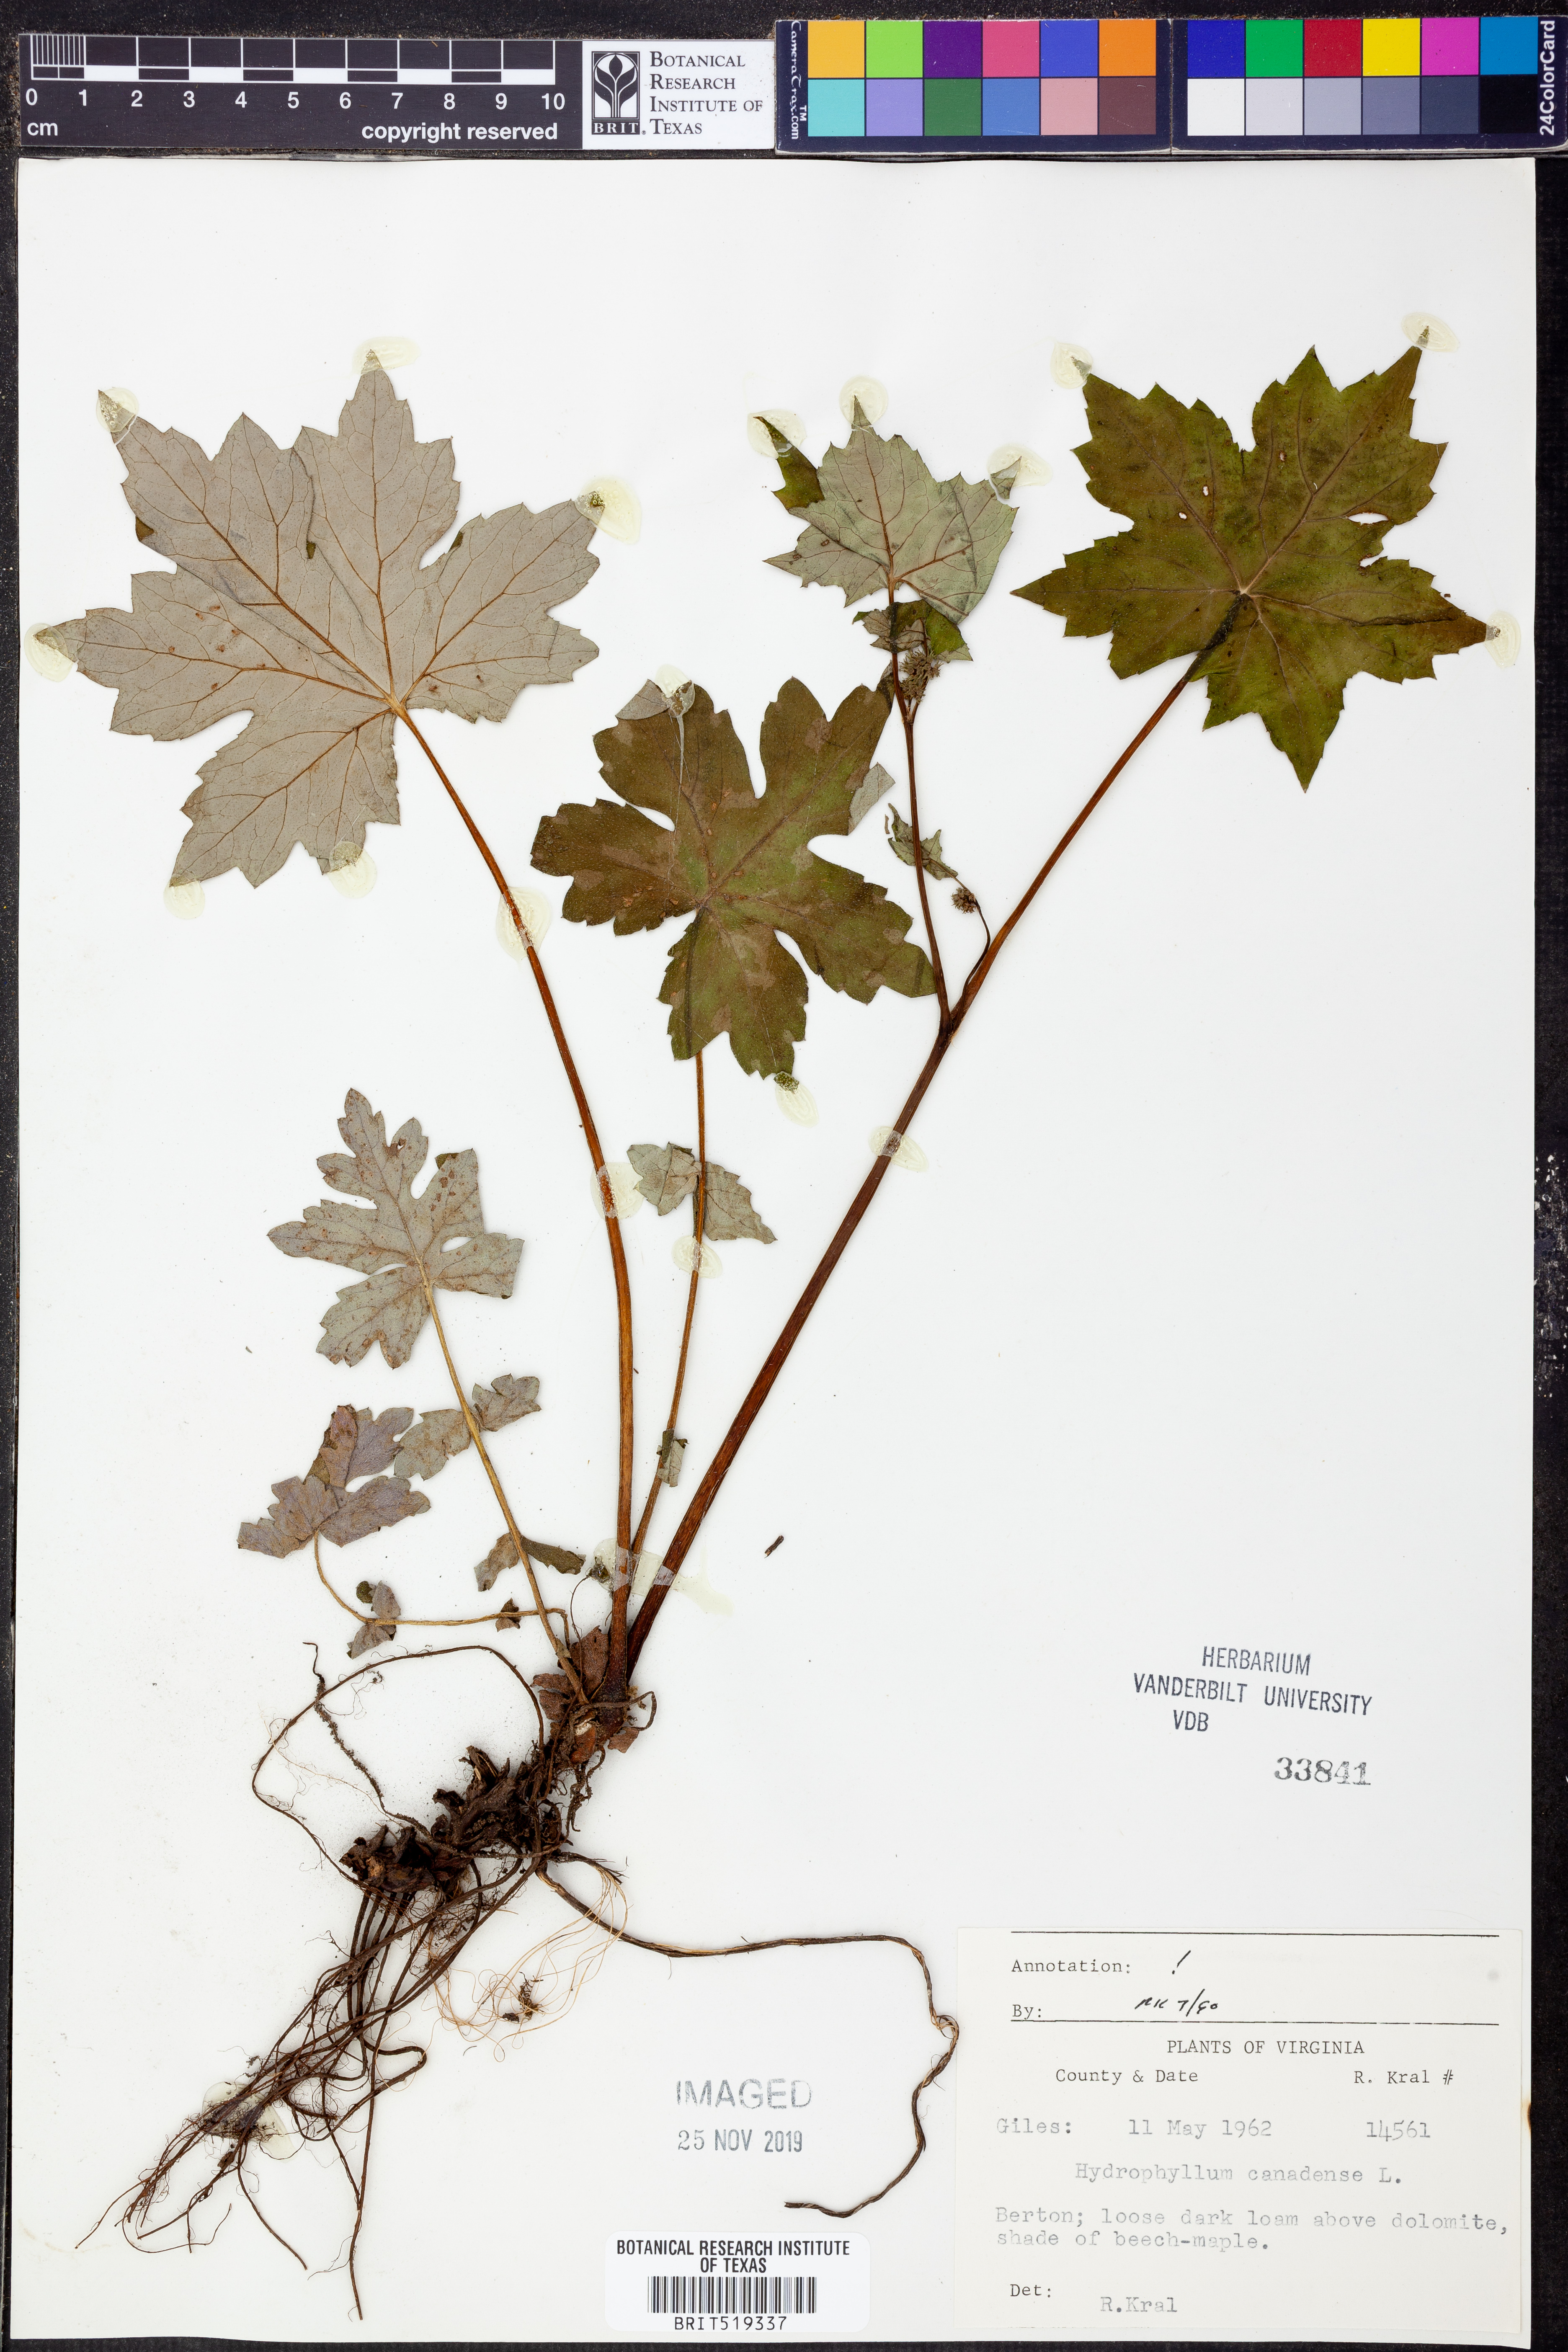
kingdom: Plantae
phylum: Tracheophyta
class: Magnoliopsida
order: Boraginales
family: Hydrophyllaceae
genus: Hydrophyllum
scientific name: Hydrophyllum canadense
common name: Canada waterleaf
